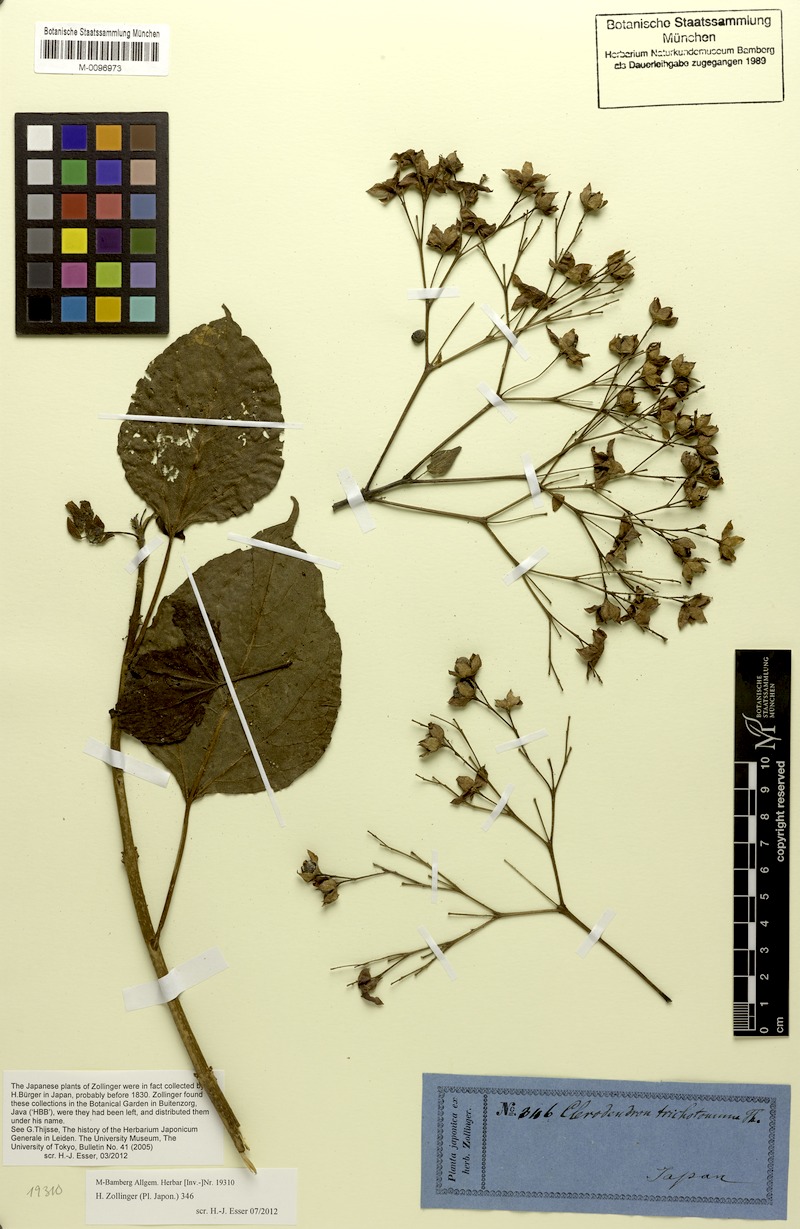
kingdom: Plantae
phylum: Tracheophyta
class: Magnoliopsida
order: Lamiales
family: Lamiaceae
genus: Clerodendrum
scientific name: Clerodendrum trichotomum
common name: Harlequin glorybower
